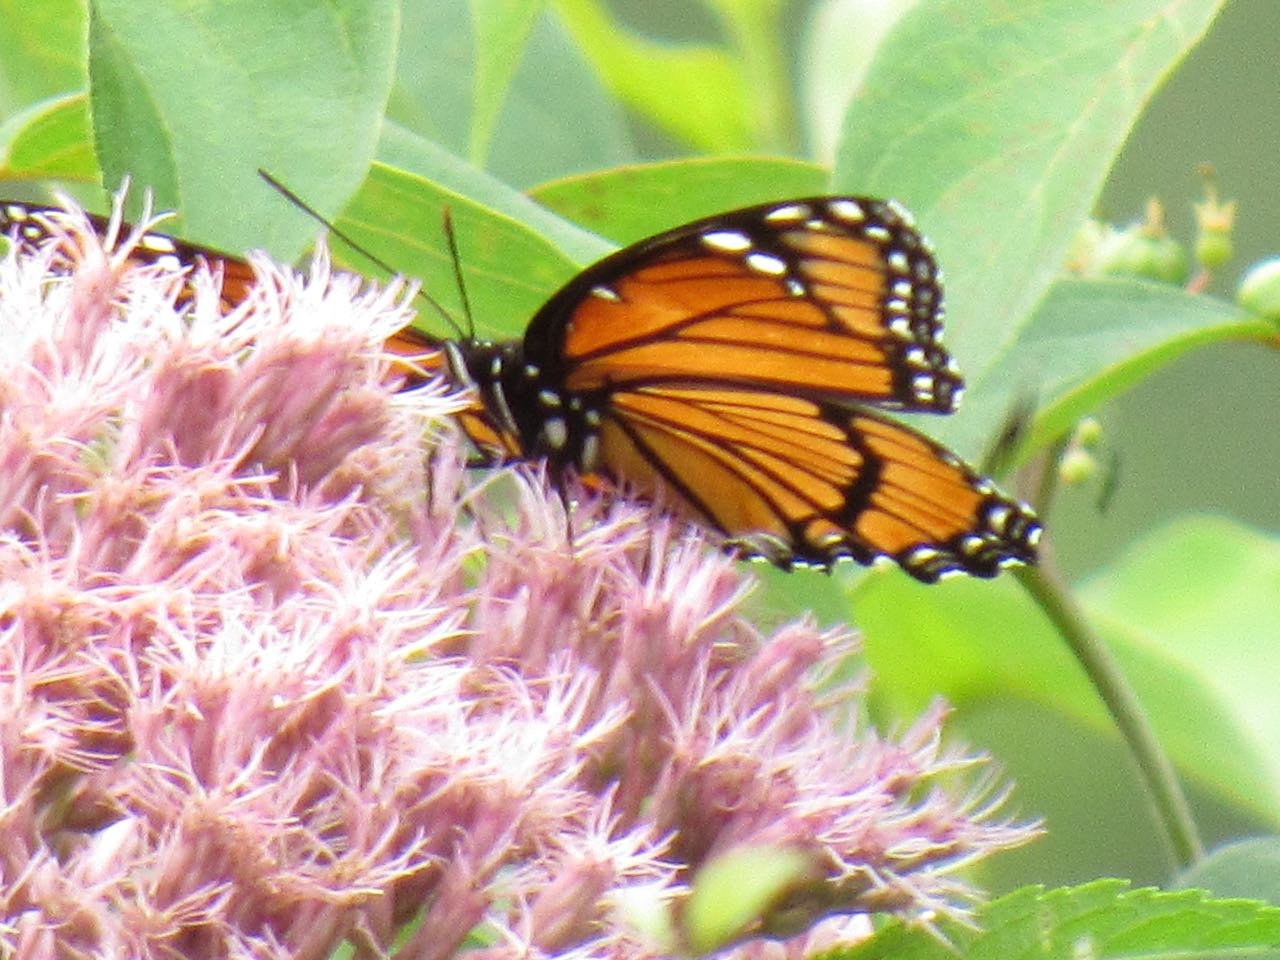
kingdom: Animalia
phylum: Arthropoda
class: Insecta
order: Lepidoptera
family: Nymphalidae
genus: Limenitis
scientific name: Limenitis archippus
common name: Viceroy
